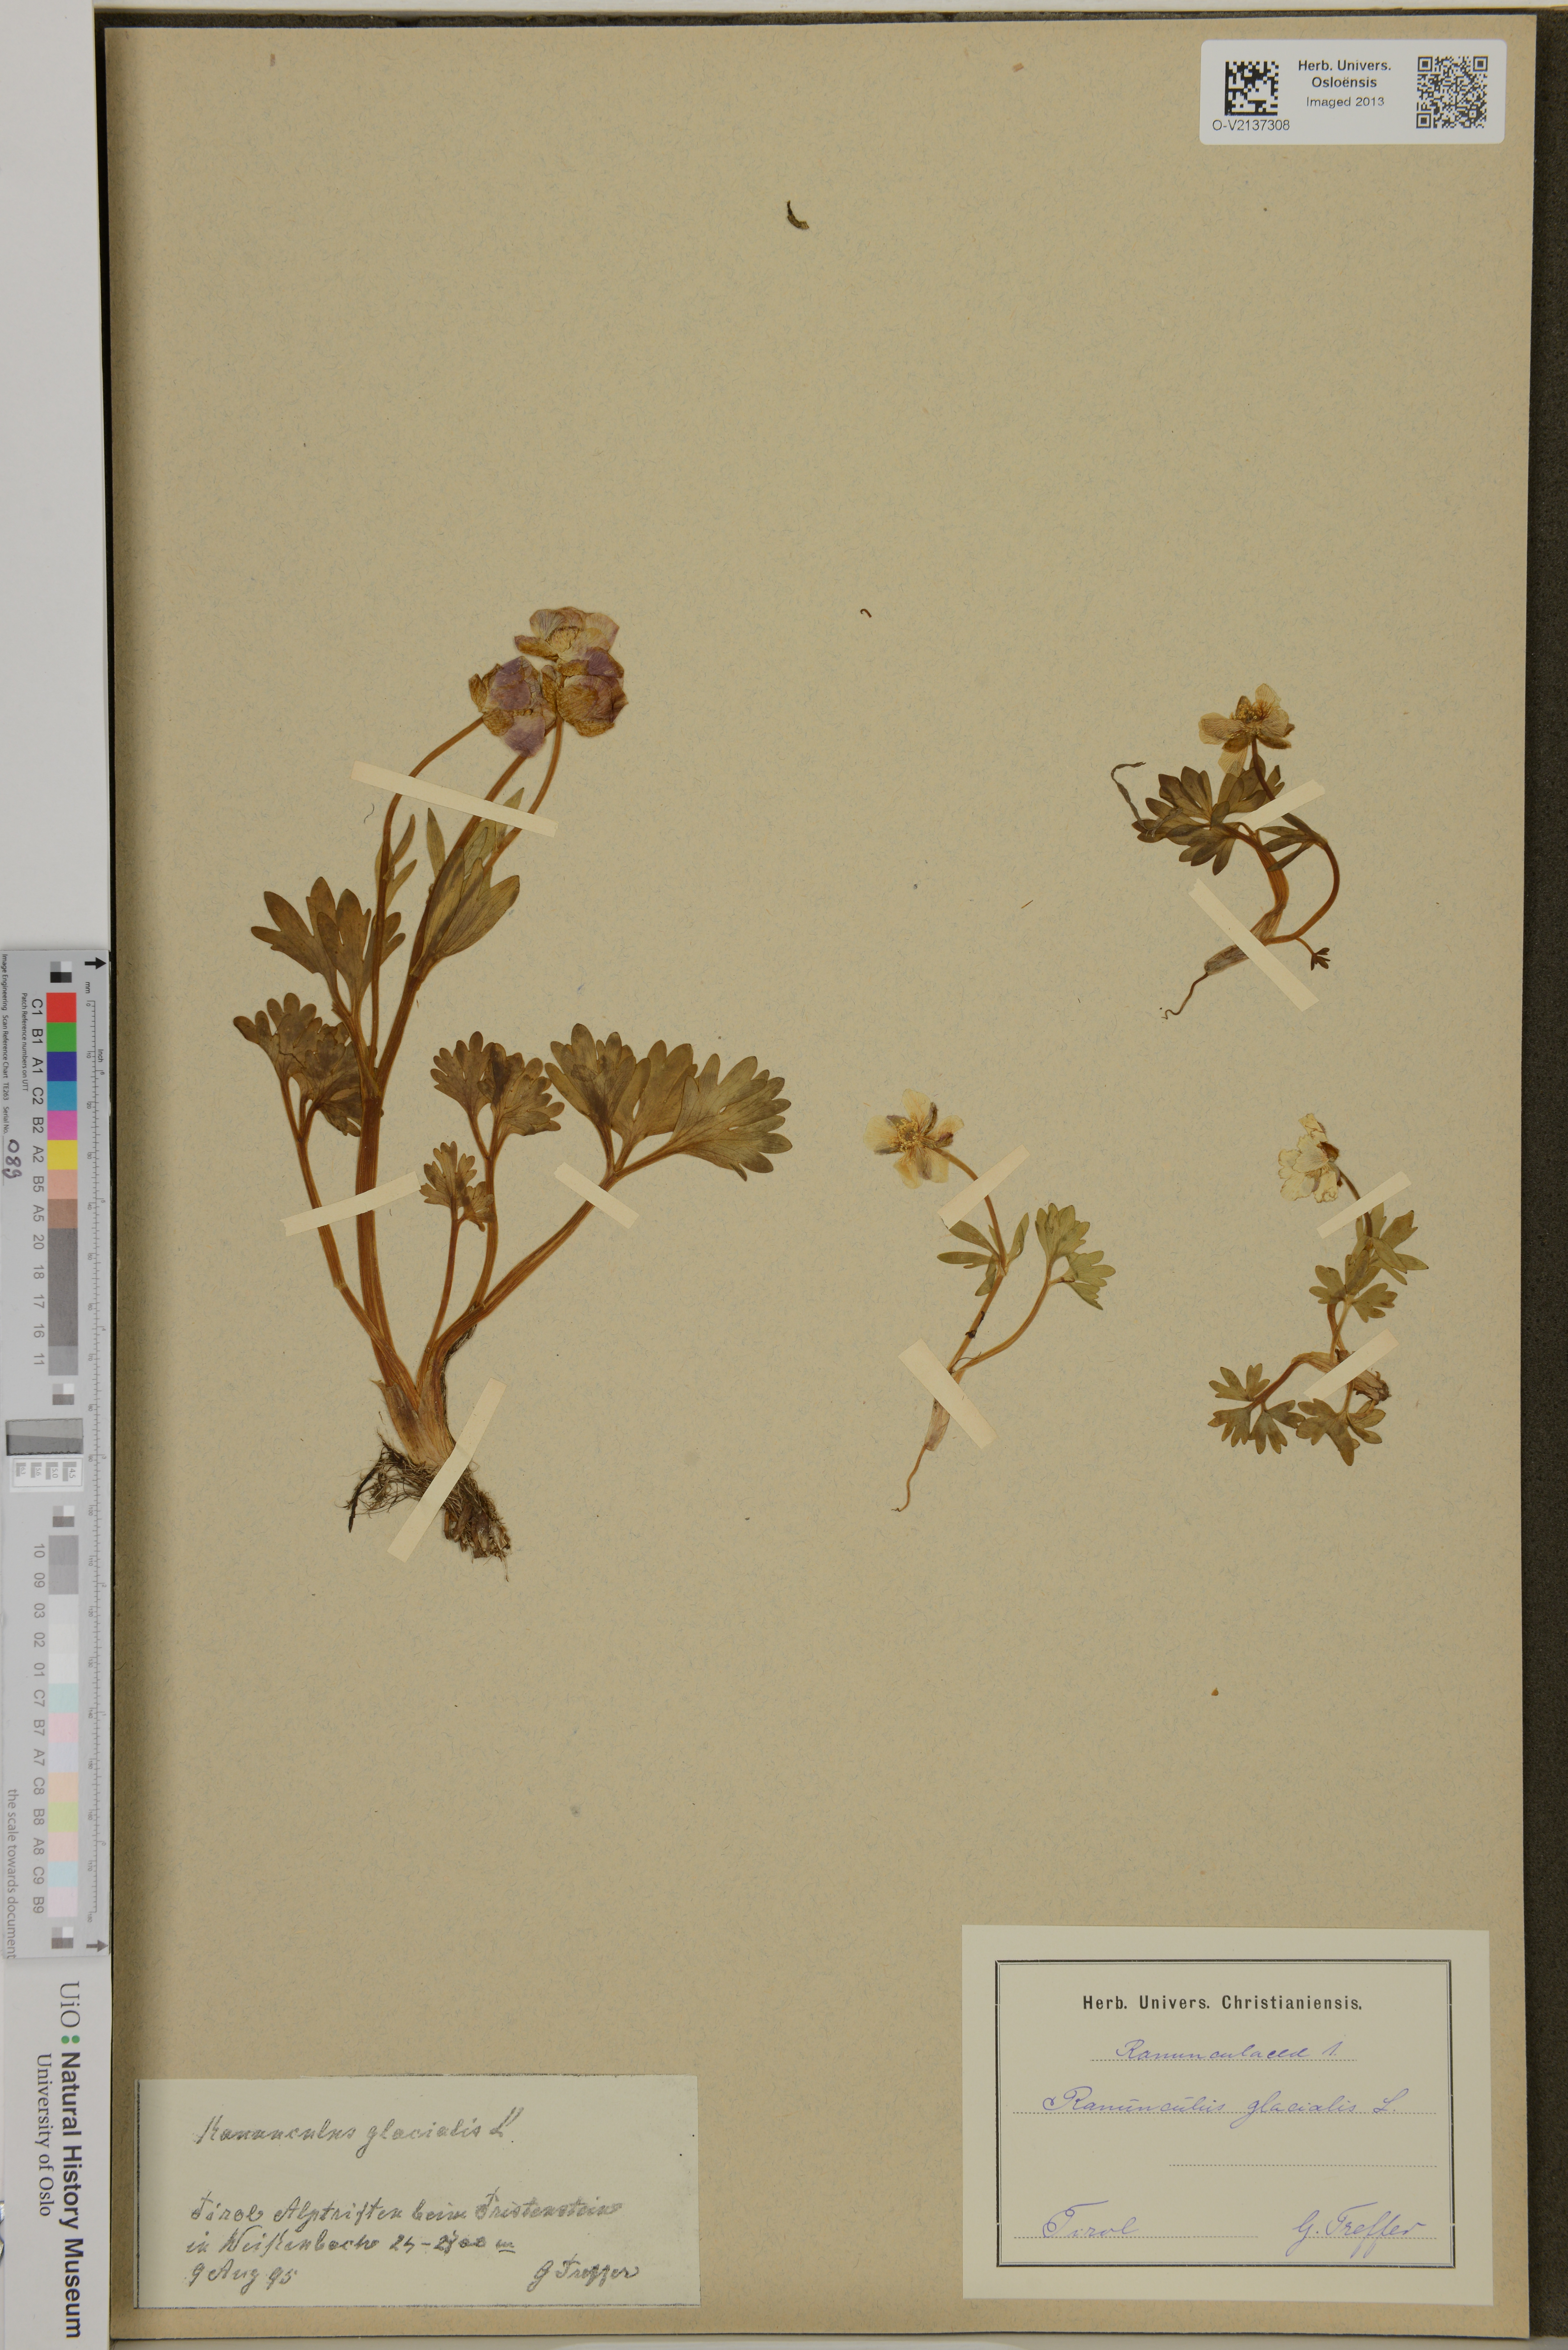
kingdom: Plantae
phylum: Tracheophyta
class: Magnoliopsida
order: Ranunculales
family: Ranunculaceae
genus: Ranunculus
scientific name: Ranunculus glacialis
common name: Glacier buttercup
